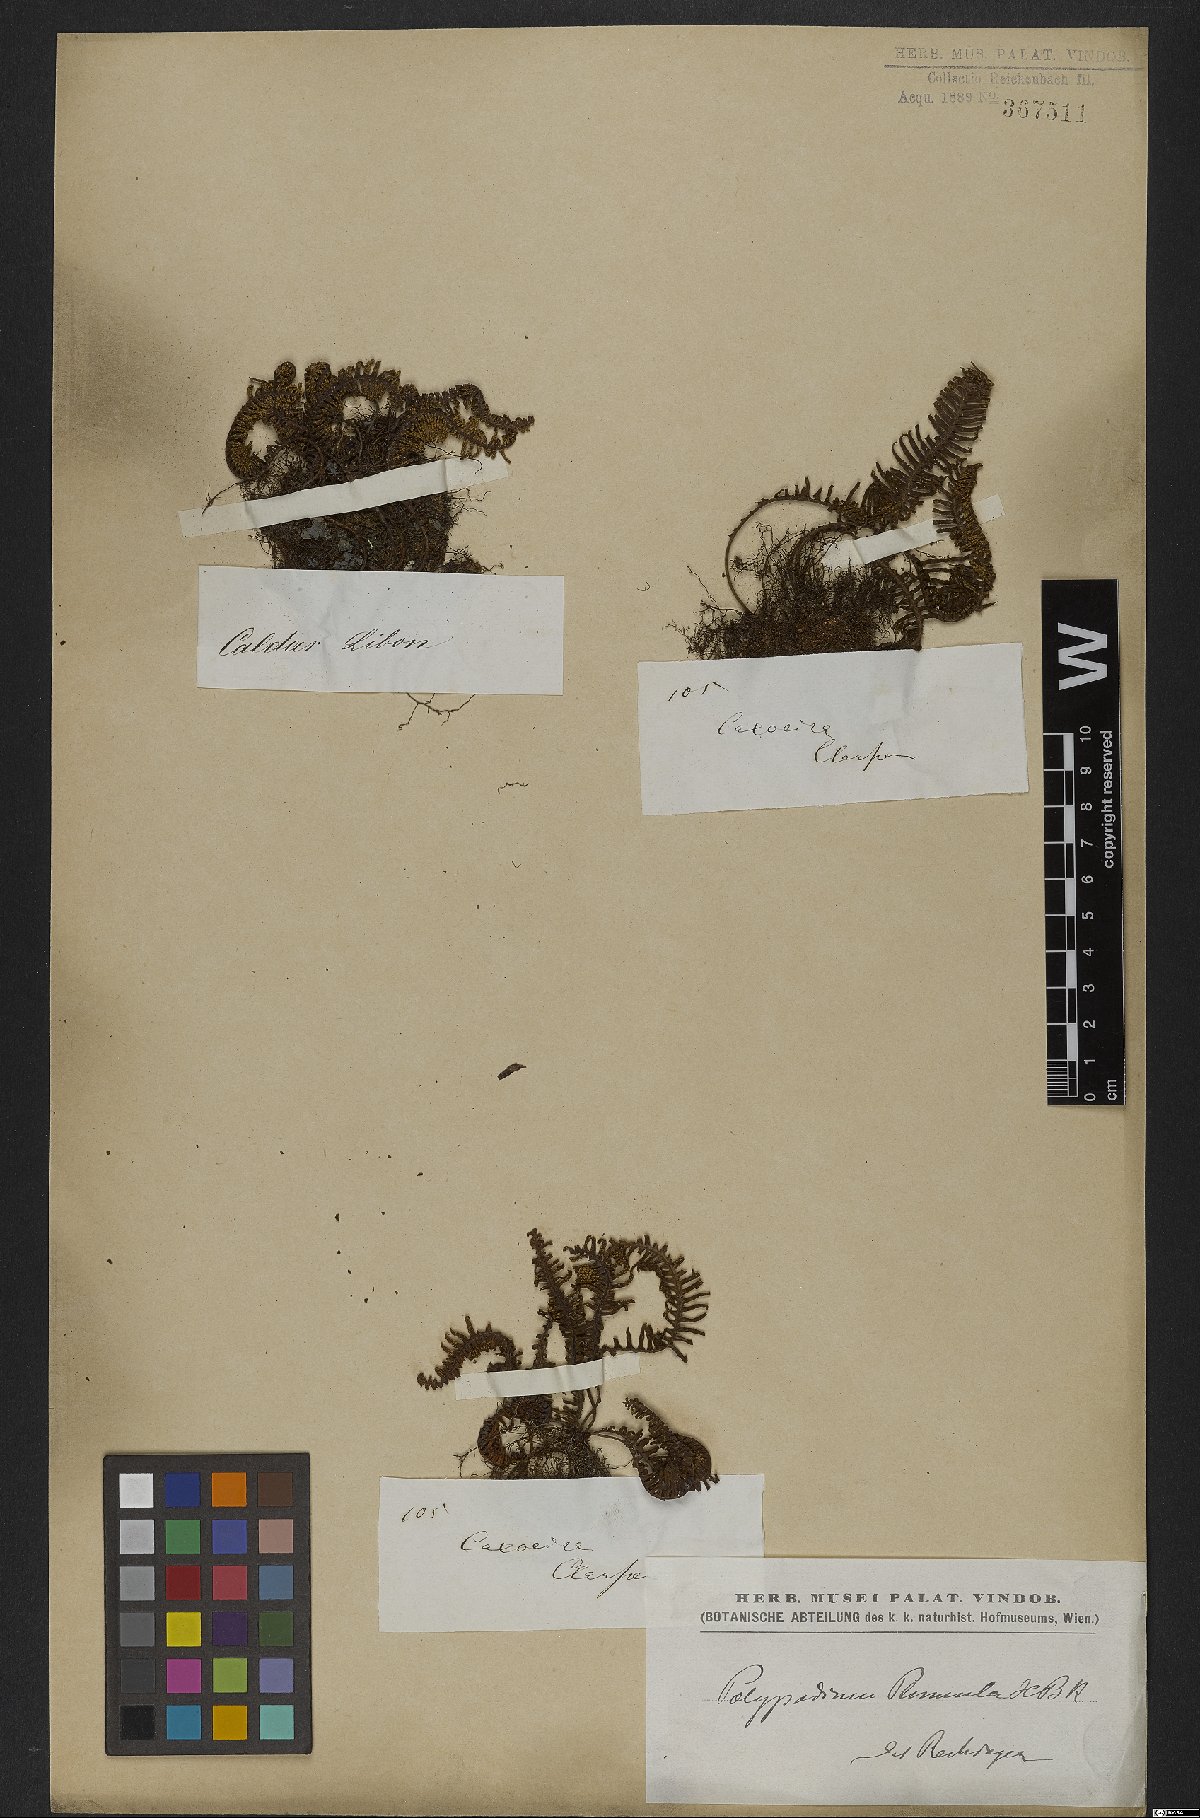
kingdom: Plantae
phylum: Tracheophyta
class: Polypodiopsida
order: Polypodiales
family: Polypodiaceae
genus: Pecluma
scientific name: Pecluma plumula
